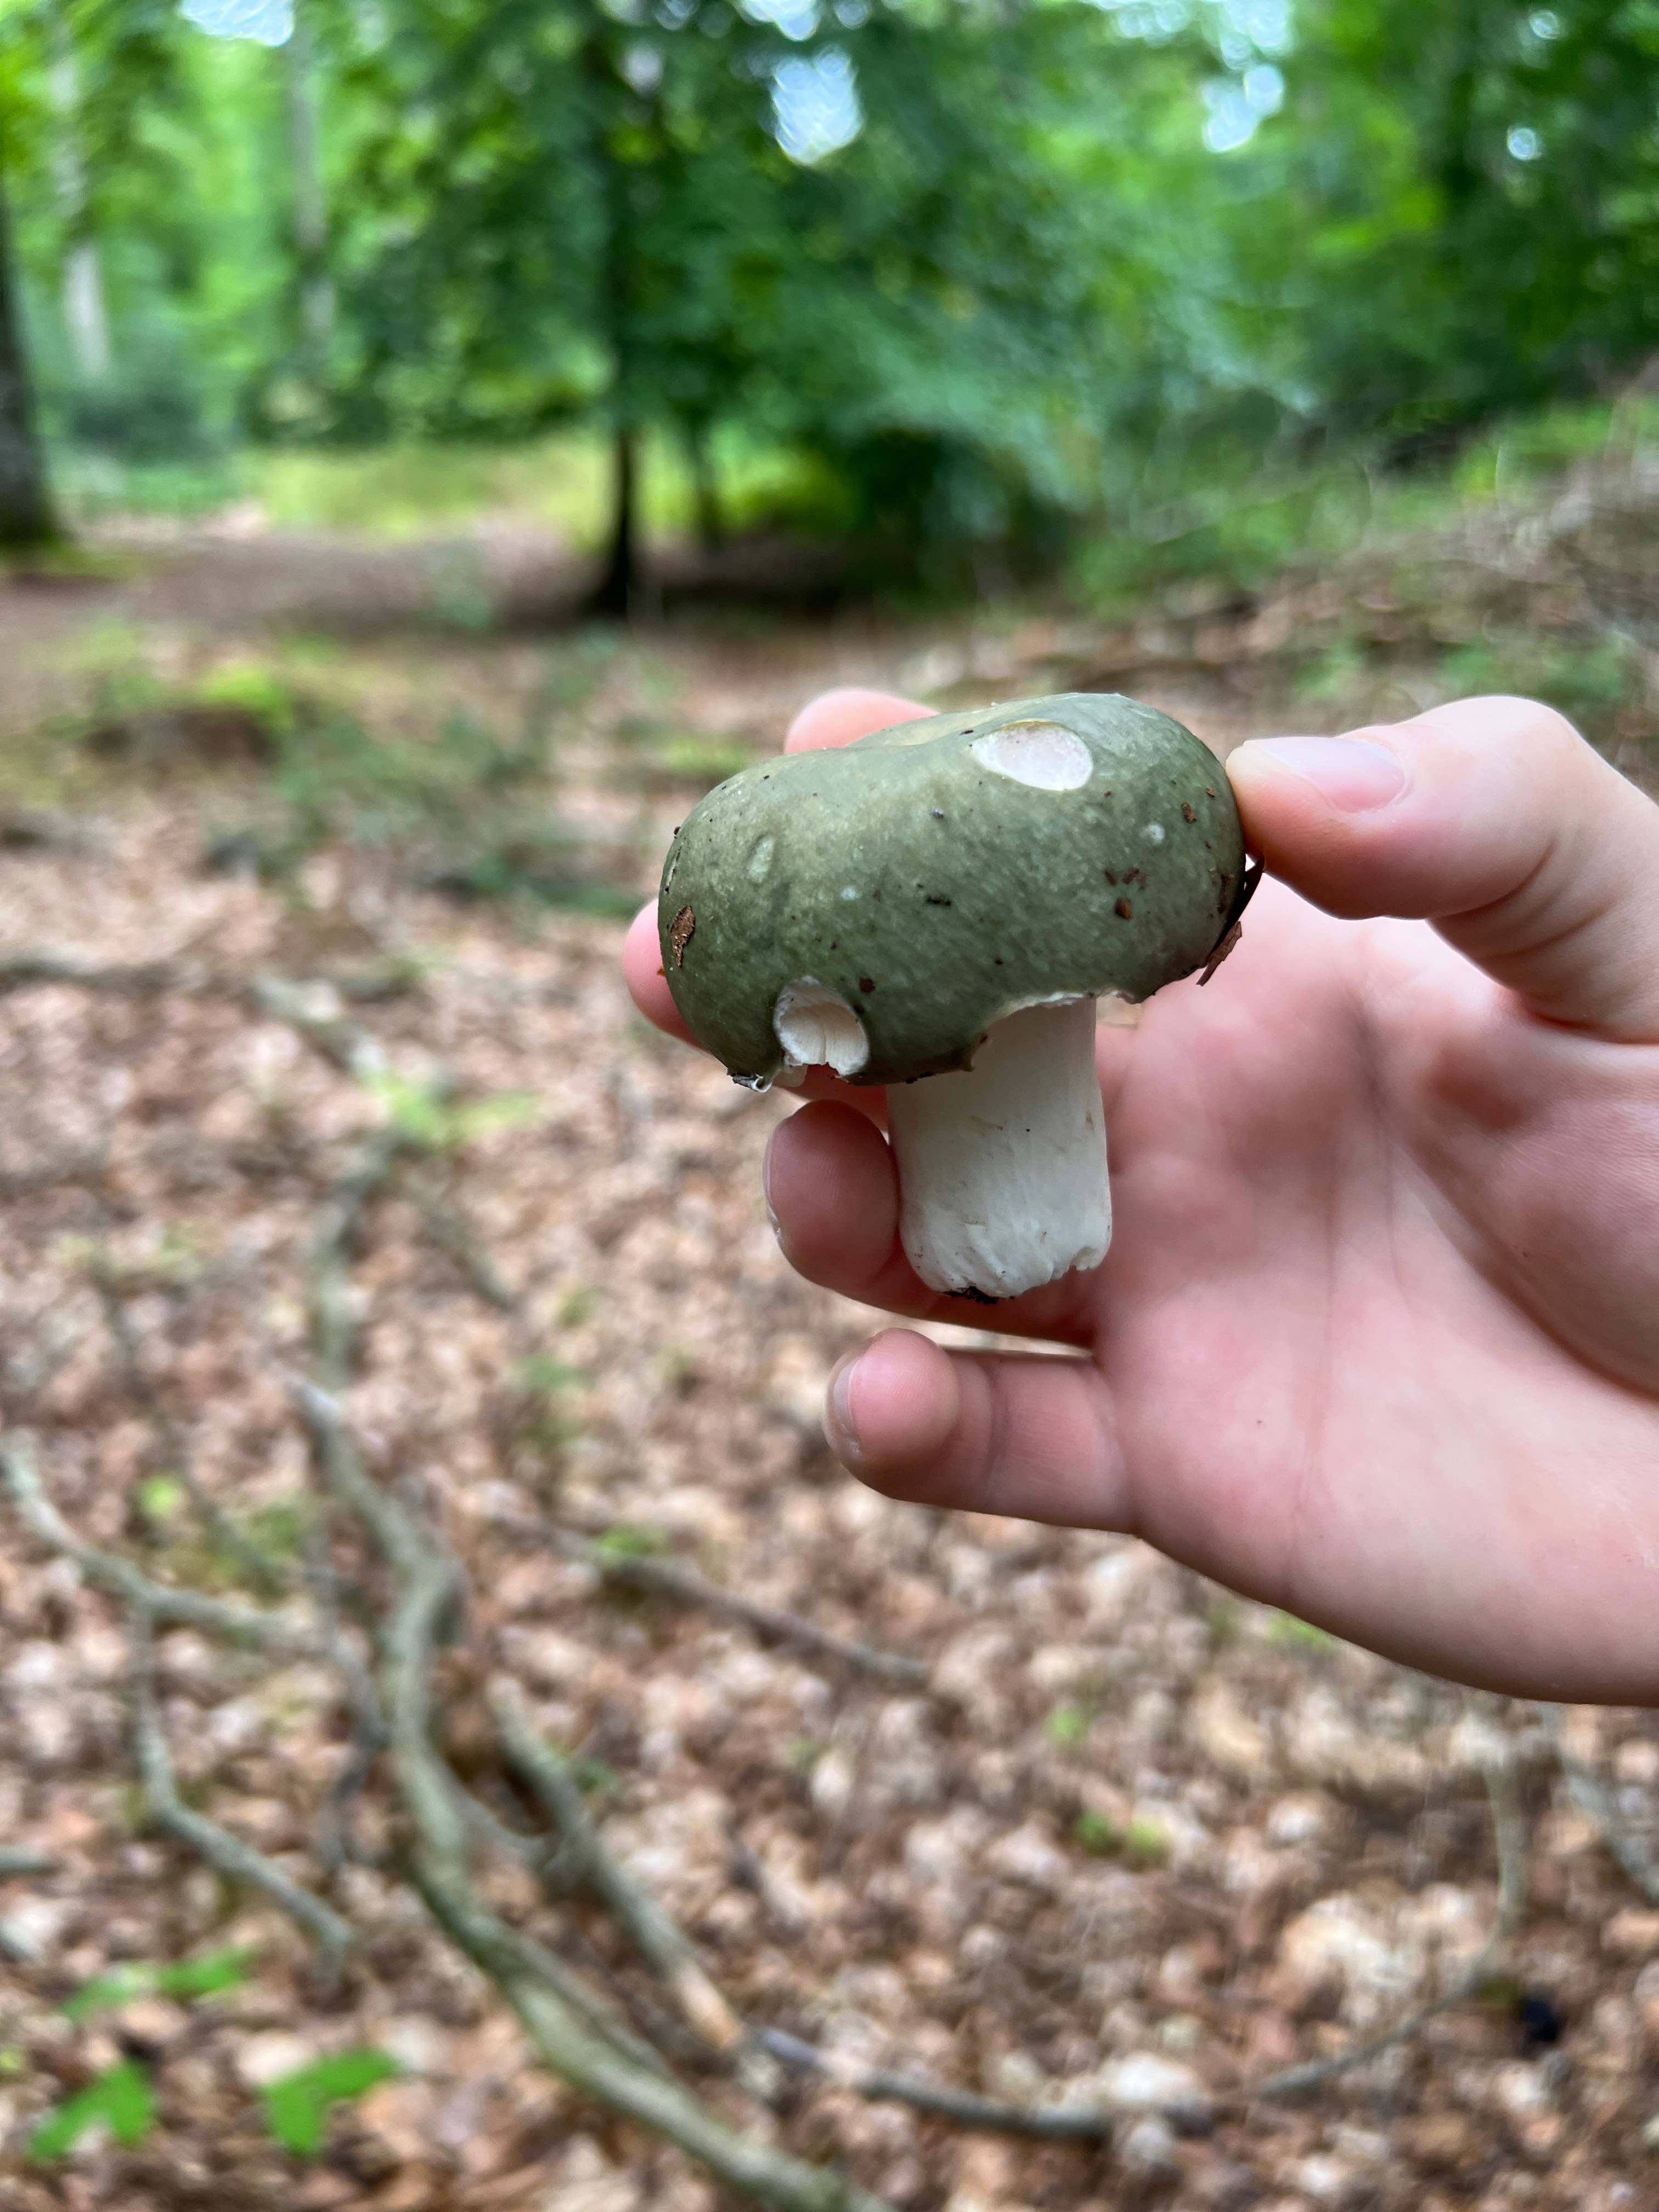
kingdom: Fungi
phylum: Basidiomycota
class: Agaricomycetes
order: Russulales
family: Russulaceae
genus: Russula
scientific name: Russula
